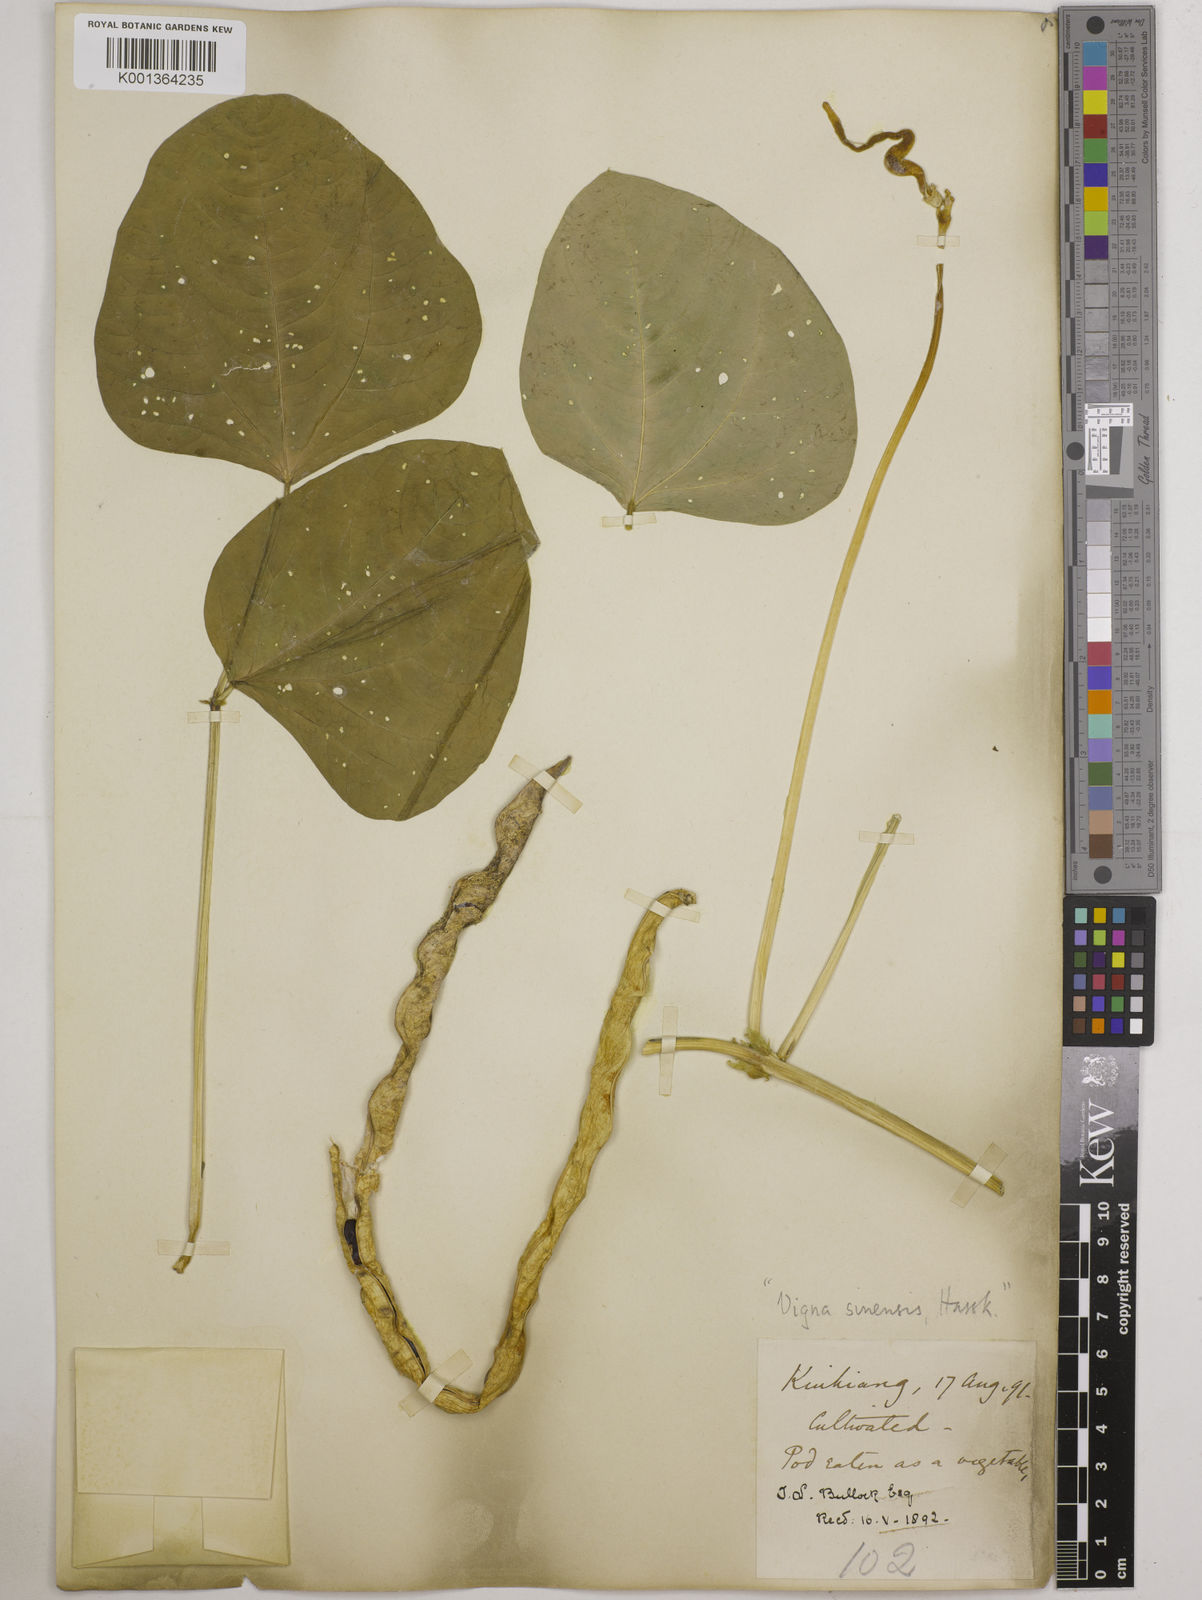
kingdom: Plantae
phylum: Tracheophyta
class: Magnoliopsida
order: Fabales
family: Fabaceae
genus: Vigna
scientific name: Vigna unguiculata
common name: Cowpea
